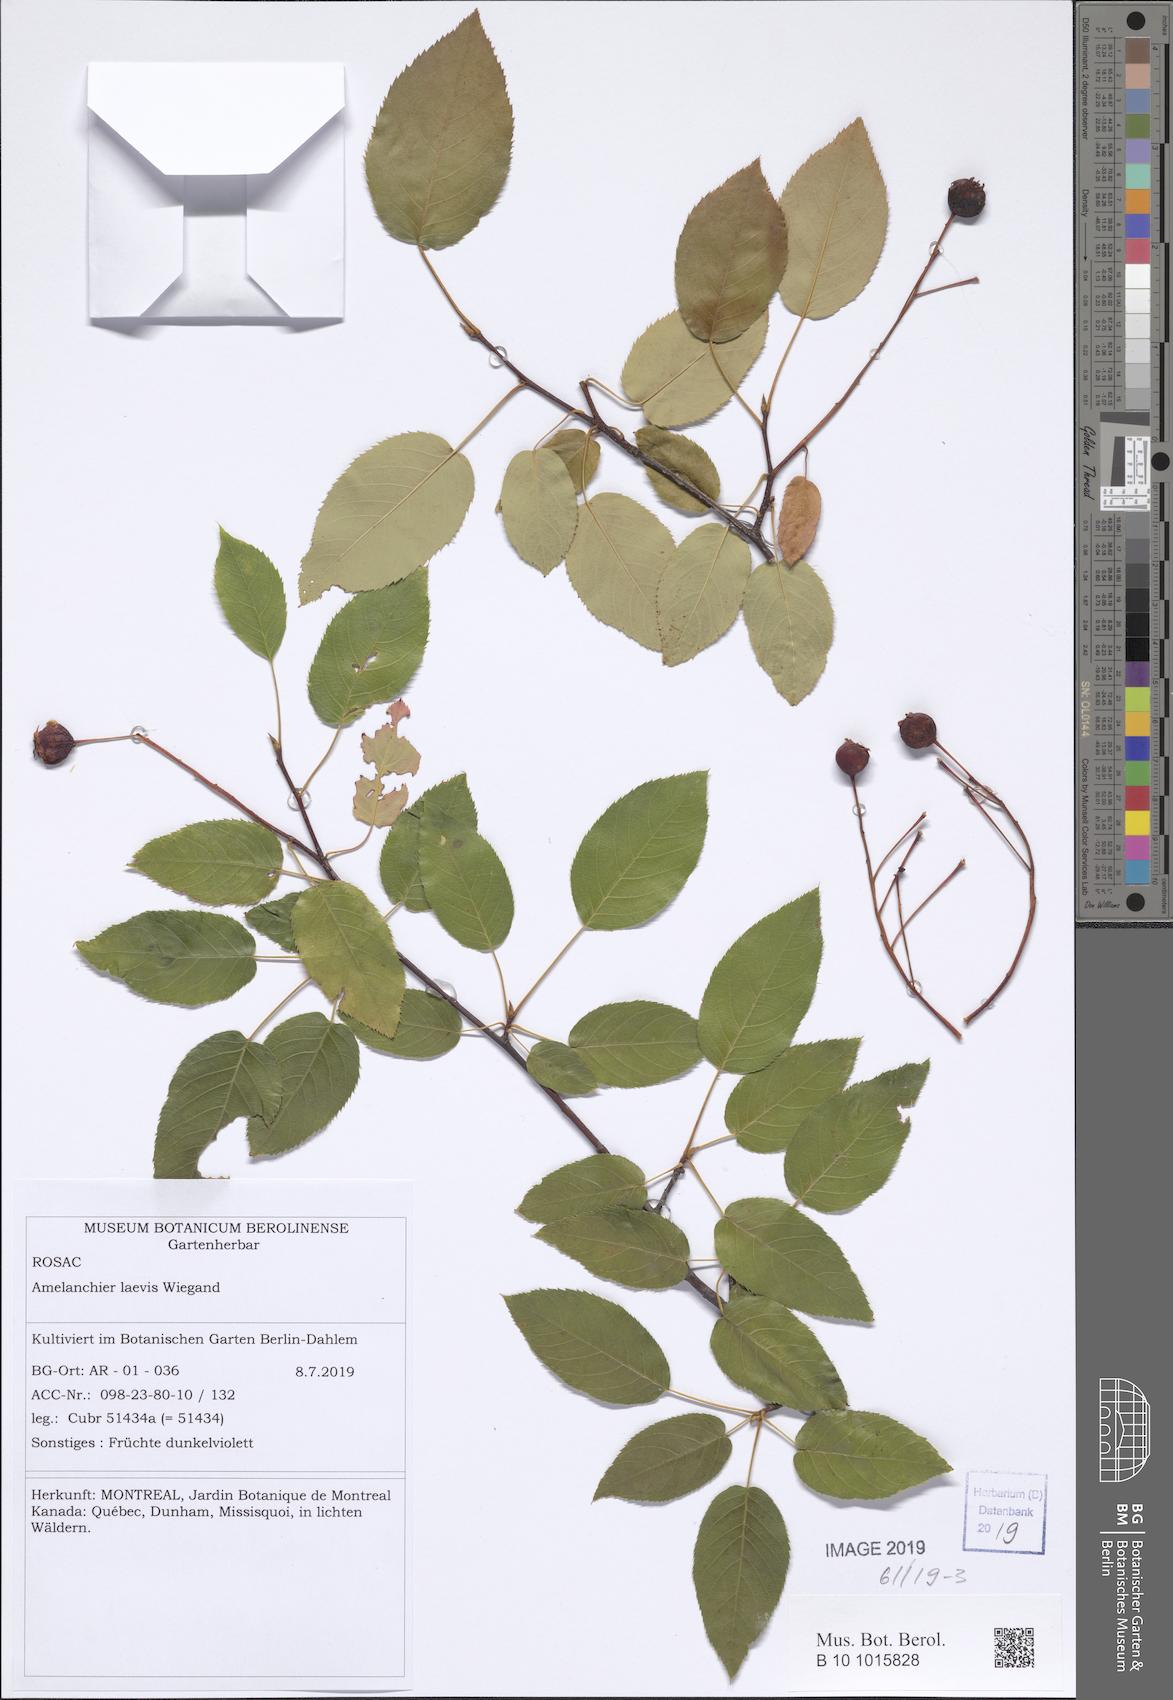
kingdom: Plantae
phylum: Tracheophyta
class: Magnoliopsida
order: Rosales
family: Rosaceae
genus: Amelanchier
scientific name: Amelanchier laevis
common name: Allegheny serviceberry
